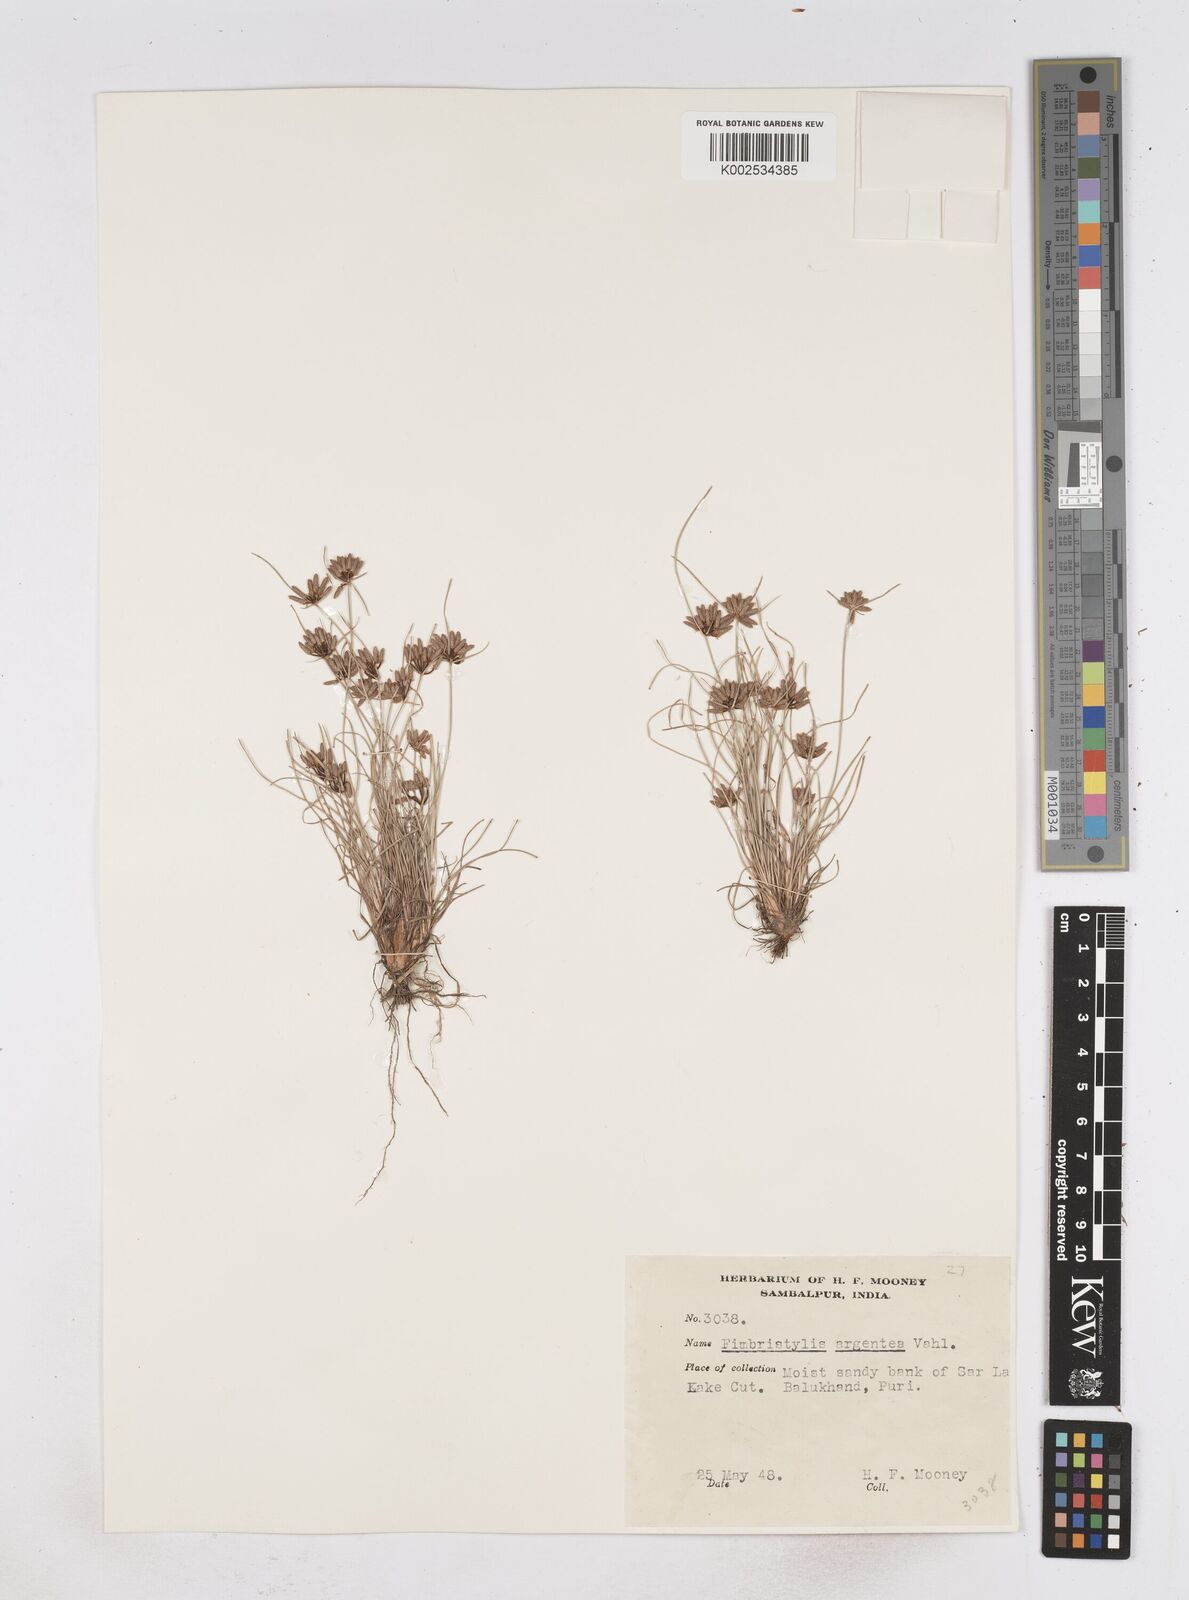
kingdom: Plantae
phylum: Tracheophyta
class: Liliopsida
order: Poales
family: Cyperaceae
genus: Fimbristylis
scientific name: Fimbristylis argentea
